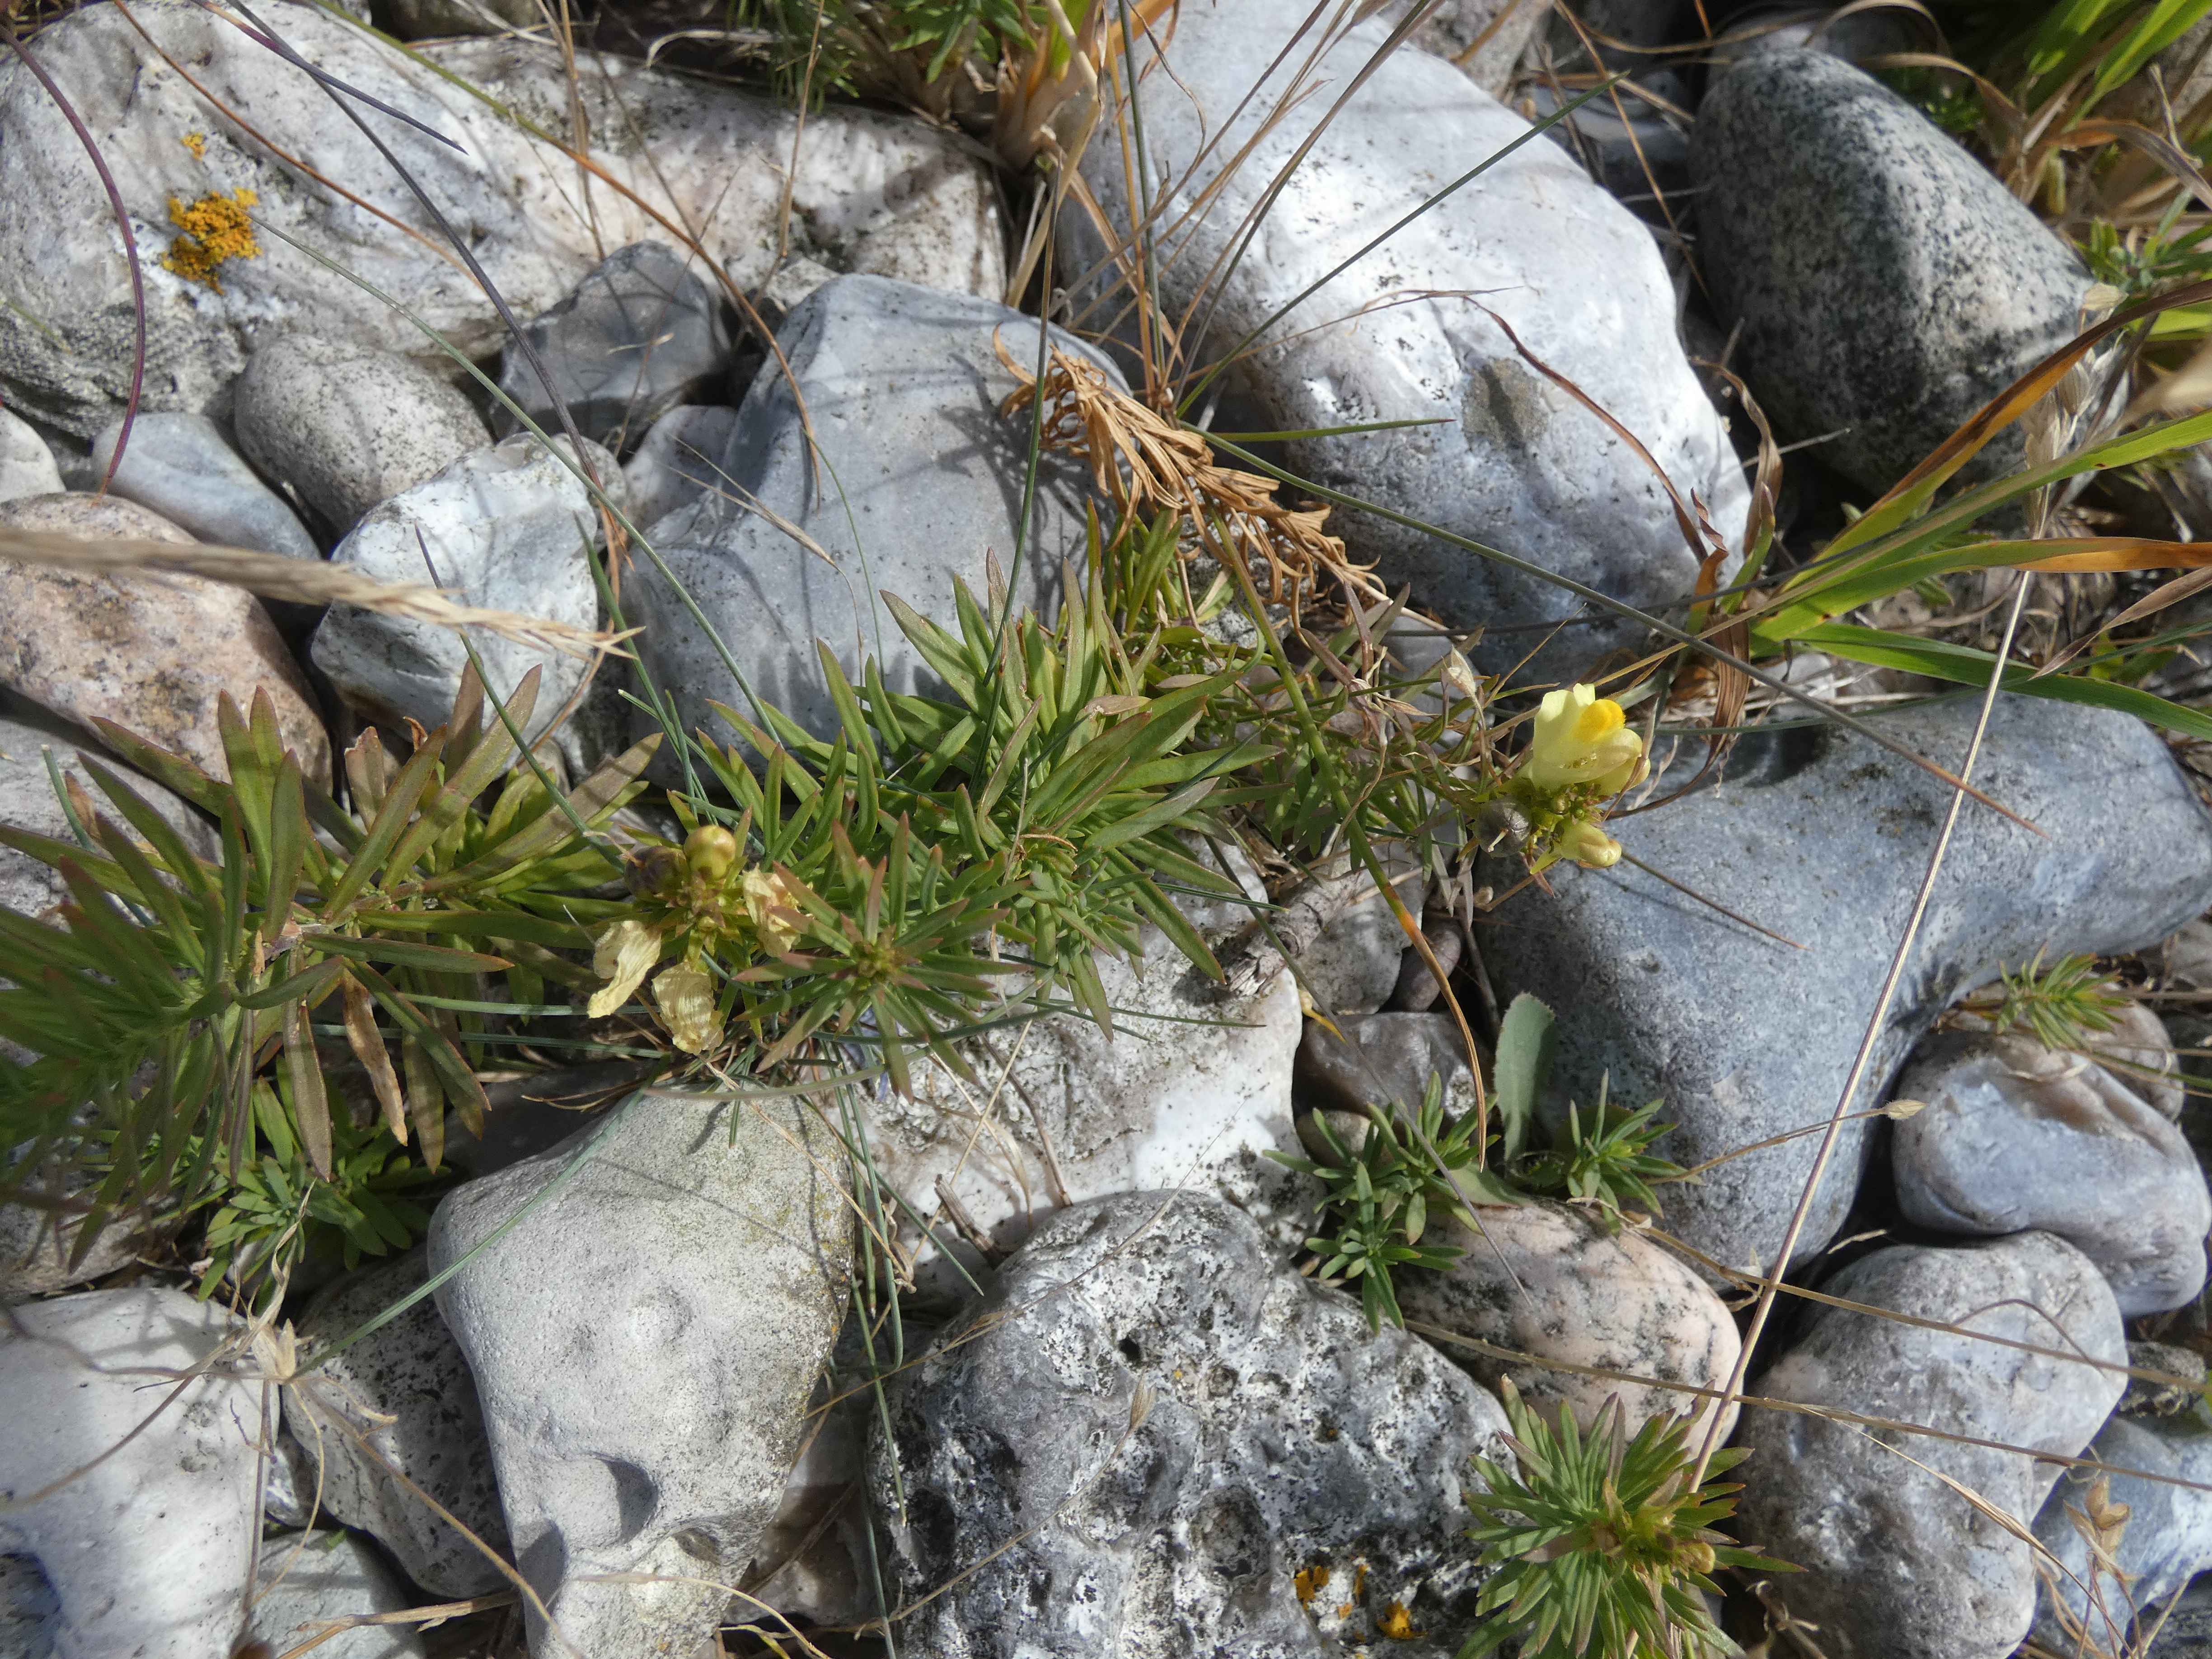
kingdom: Plantae
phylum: Tracheophyta
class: Magnoliopsida
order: Lamiales
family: Plantaginaceae
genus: Linaria
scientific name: Linaria vulgaris
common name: Almindelig torskemund
